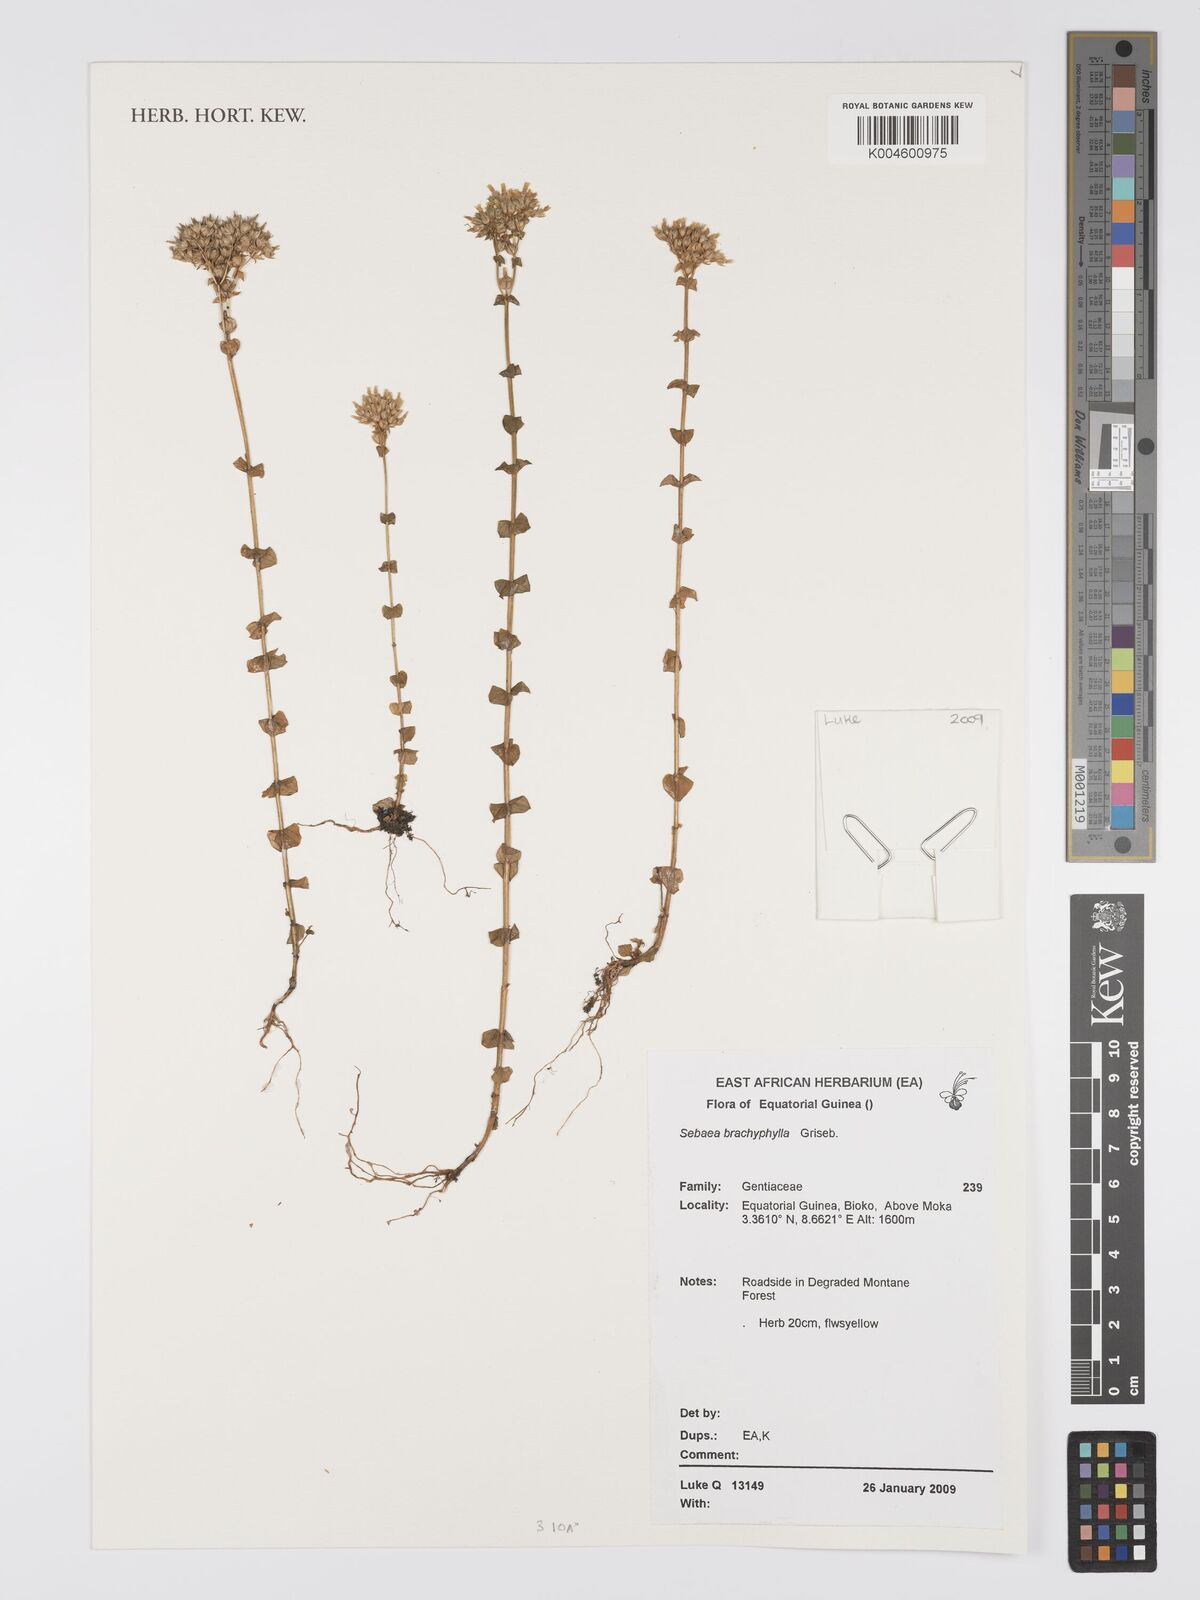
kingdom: Plantae
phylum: Tracheophyta
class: Magnoliopsida
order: Gentianales
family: Gentianaceae
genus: Sebaea
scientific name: Sebaea brachyphylla
